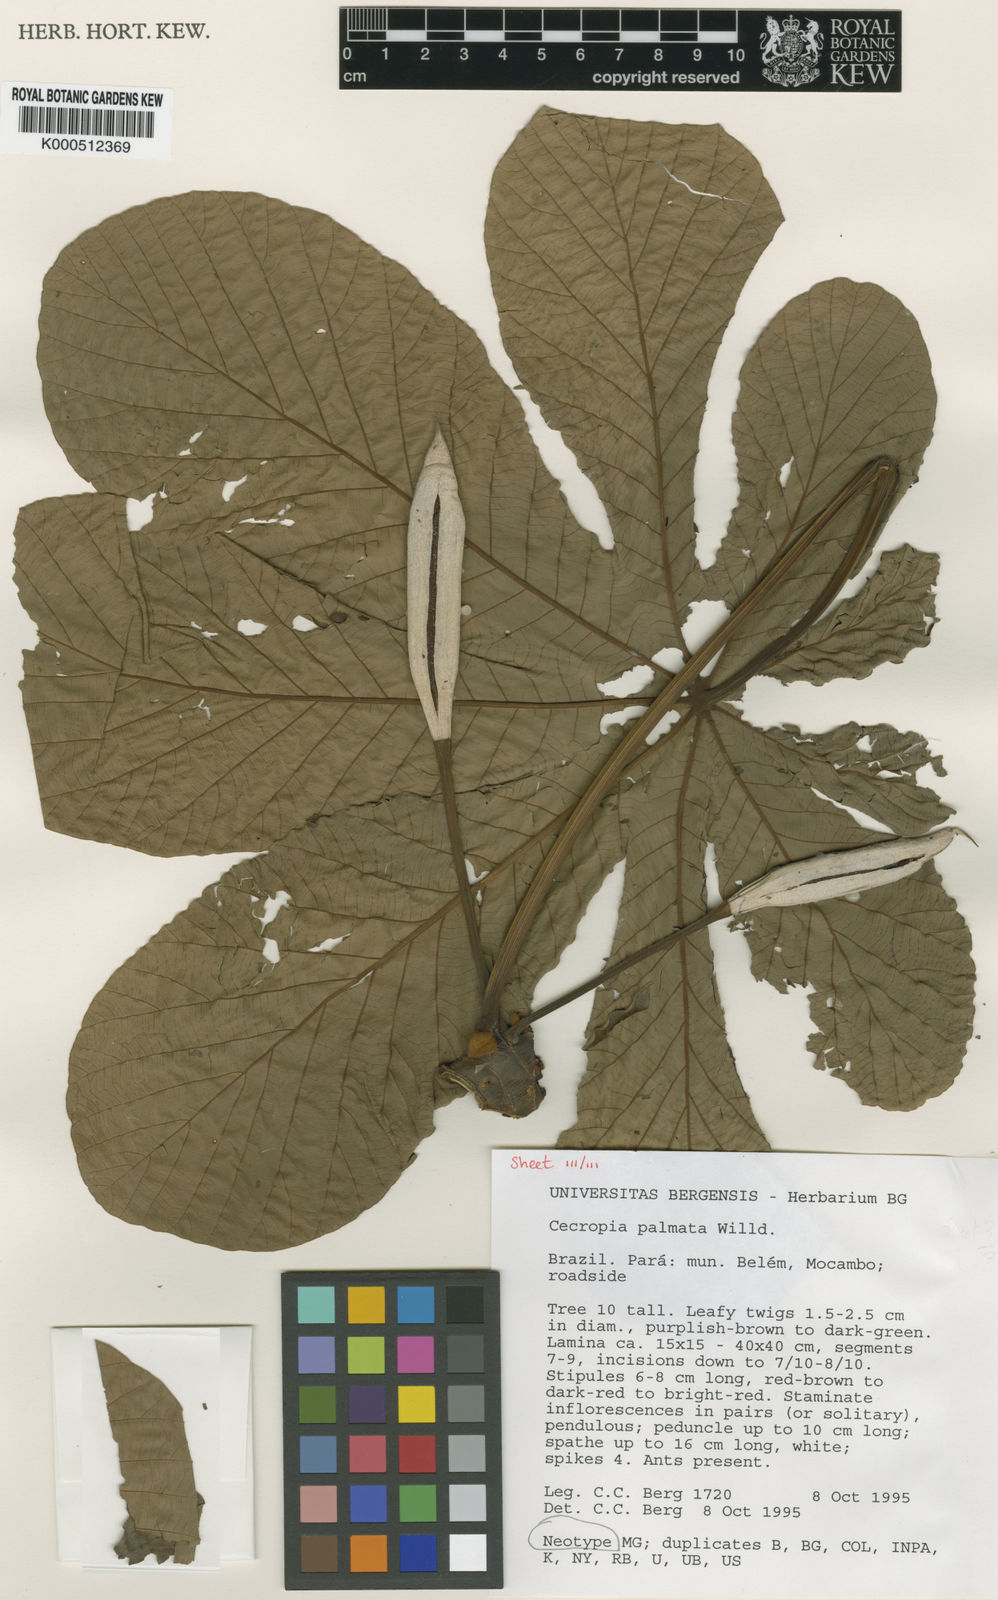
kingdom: Plantae
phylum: Tracheophyta
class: Magnoliopsida
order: Rosales
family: Urticaceae
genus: Cecropia
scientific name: Cecropia palmata
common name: Trumpet tree
